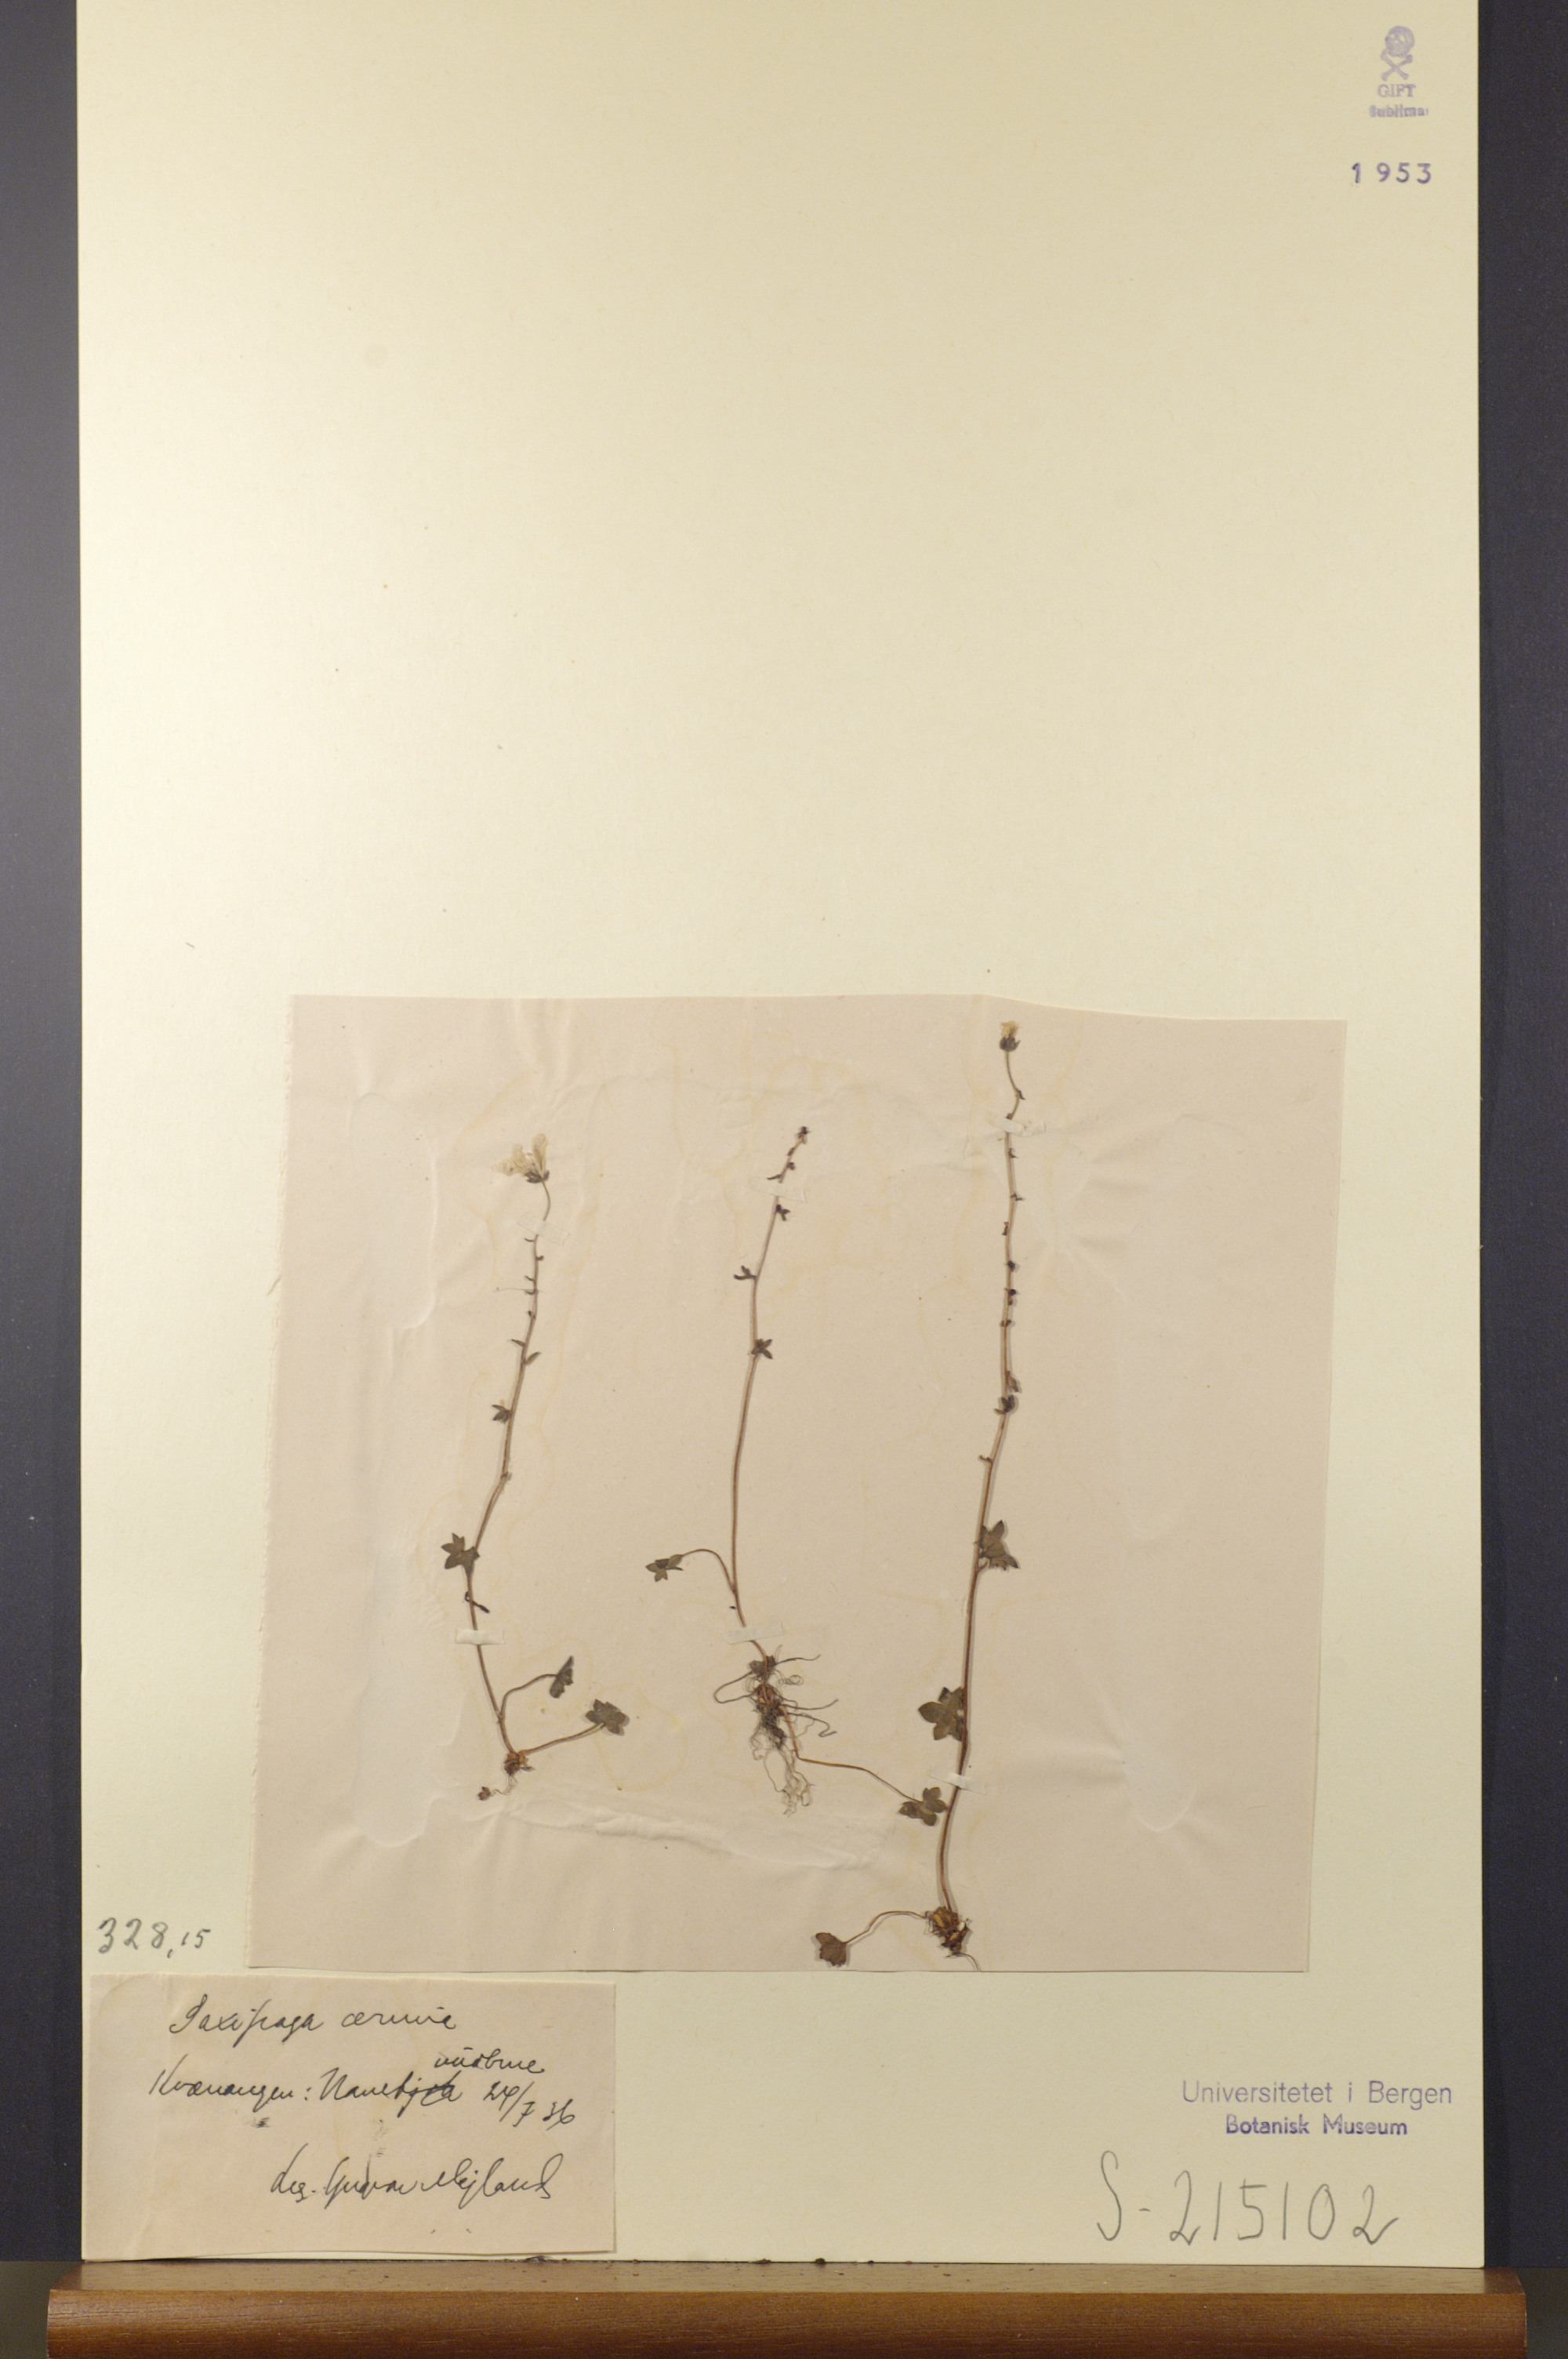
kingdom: Plantae
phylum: Tracheophyta
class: Magnoliopsida
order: Saxifragales
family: Saxifragaceae
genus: Saxifraga
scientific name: Saxifraga cernua
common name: Drooping saxifrage
